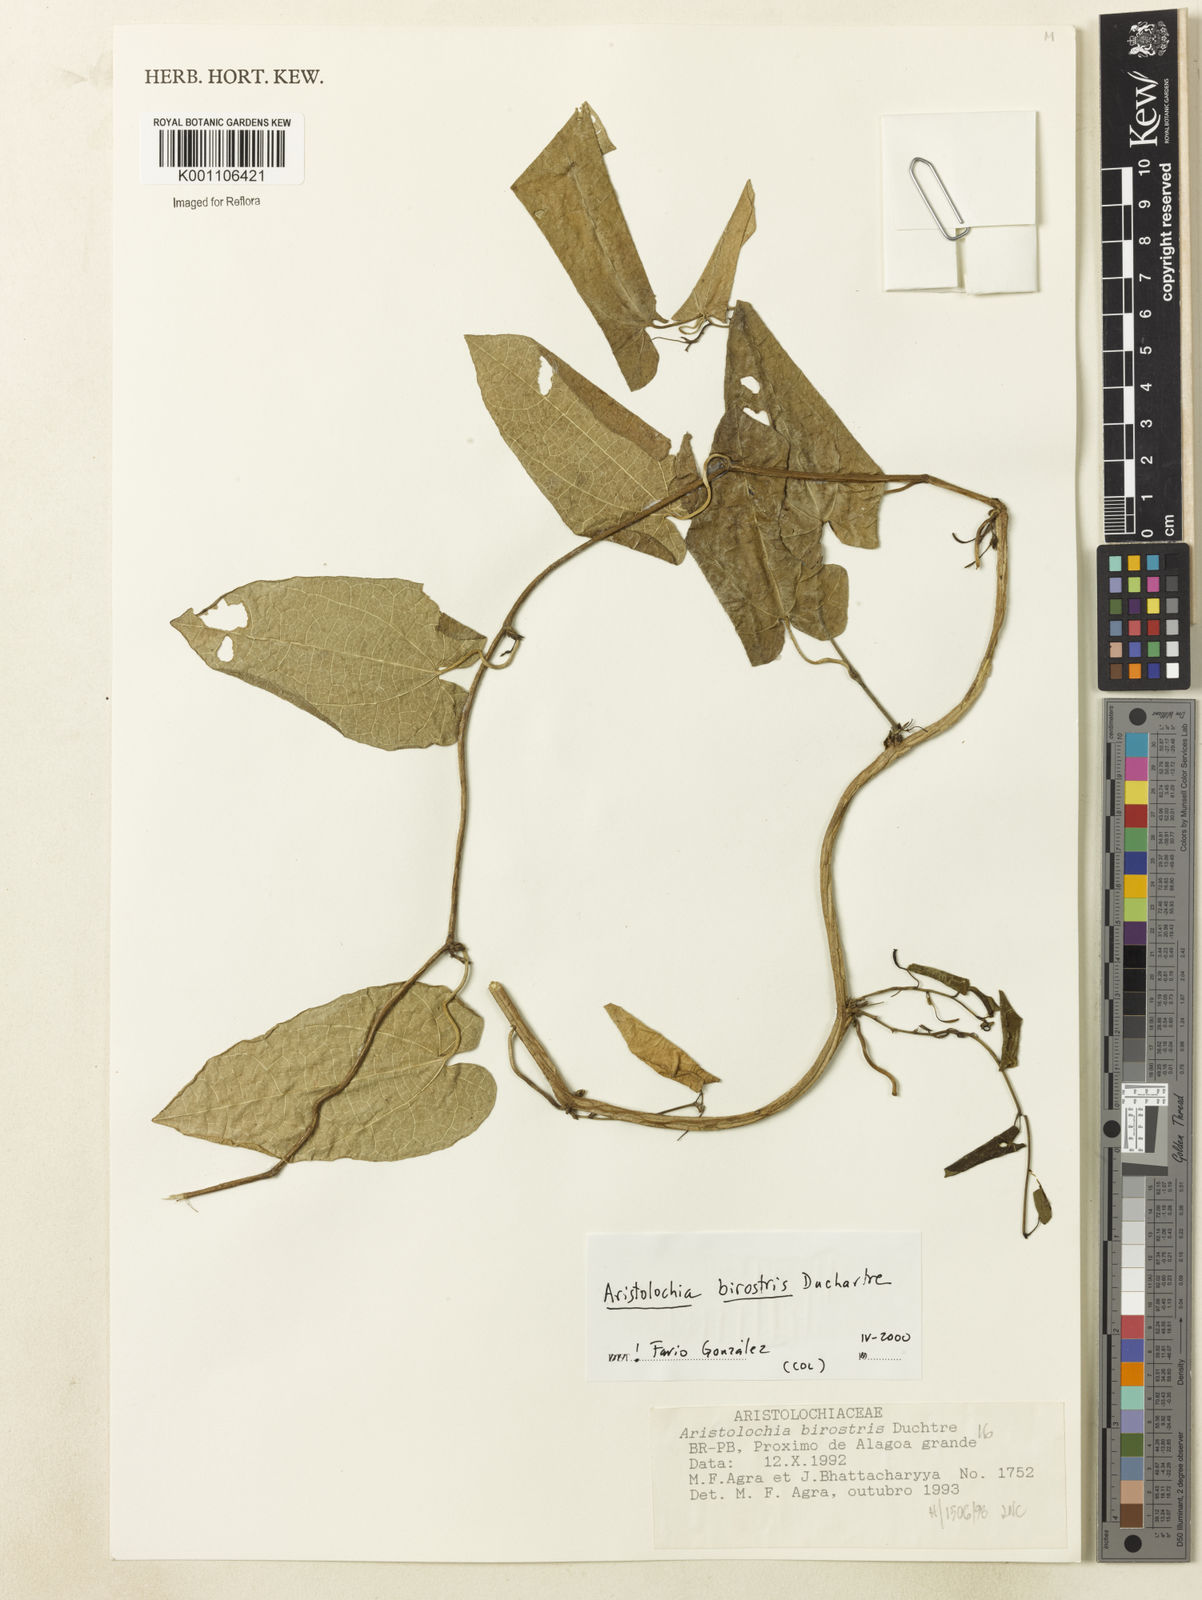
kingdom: Plantae
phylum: Tracheophyta
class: Magnoliopsida
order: Piperales
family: Aristolochiaceae
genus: Aristolochia
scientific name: Aristolochia birostris
